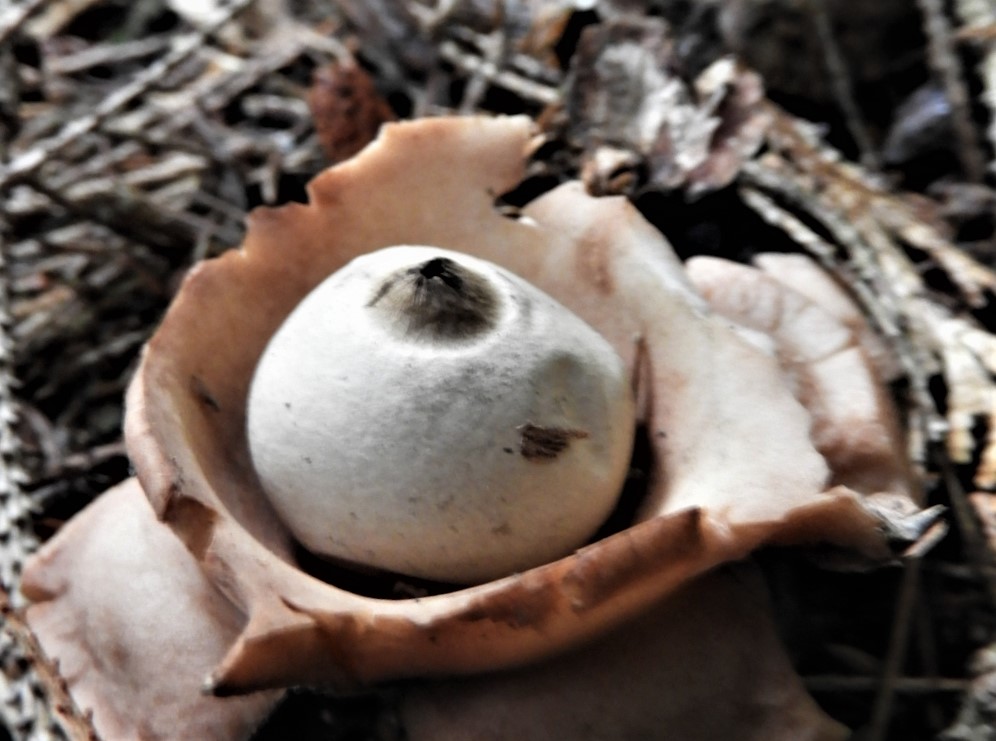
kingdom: Fungi
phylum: Basidiomycota
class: Agaricomycetes
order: Geastrales
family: Geastraceae
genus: Geastrum
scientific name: Geastrum michelianum
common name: kødet stjernebold
